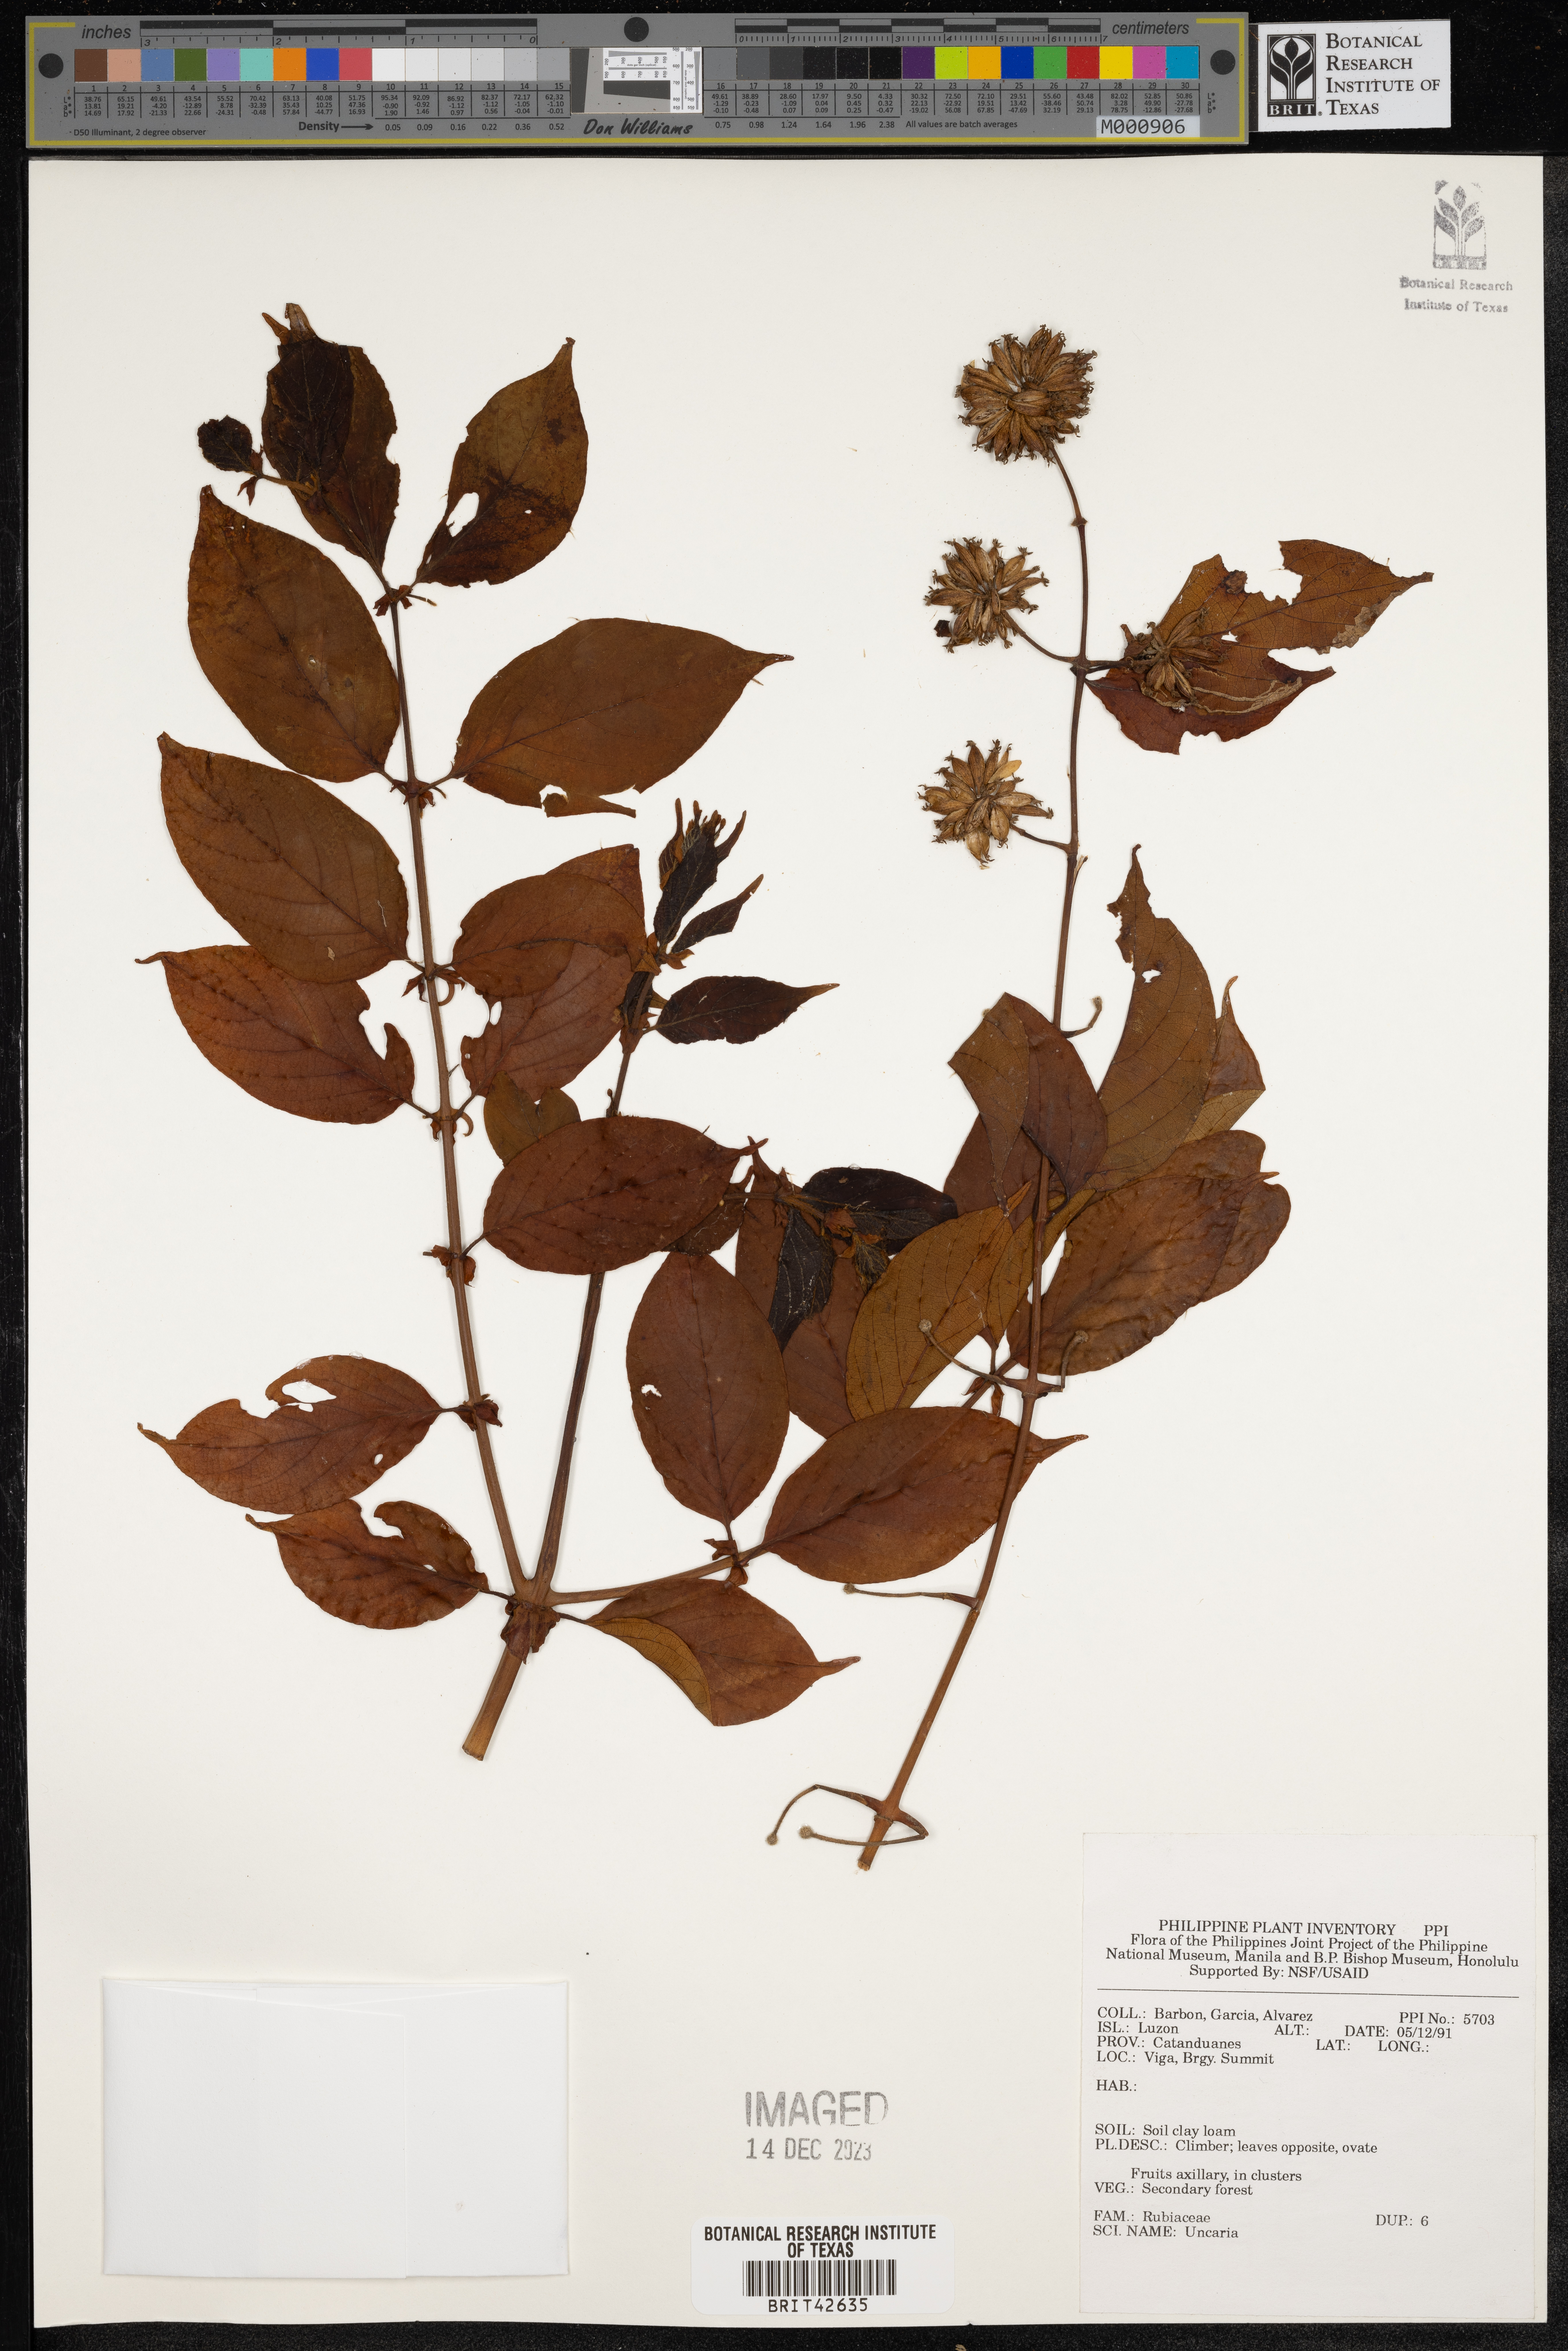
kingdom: Plantae
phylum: Tracheophyta
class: Magnoliopsida
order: Gentianales
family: Rubiaceae
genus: Uncaria
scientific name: Uncaria
